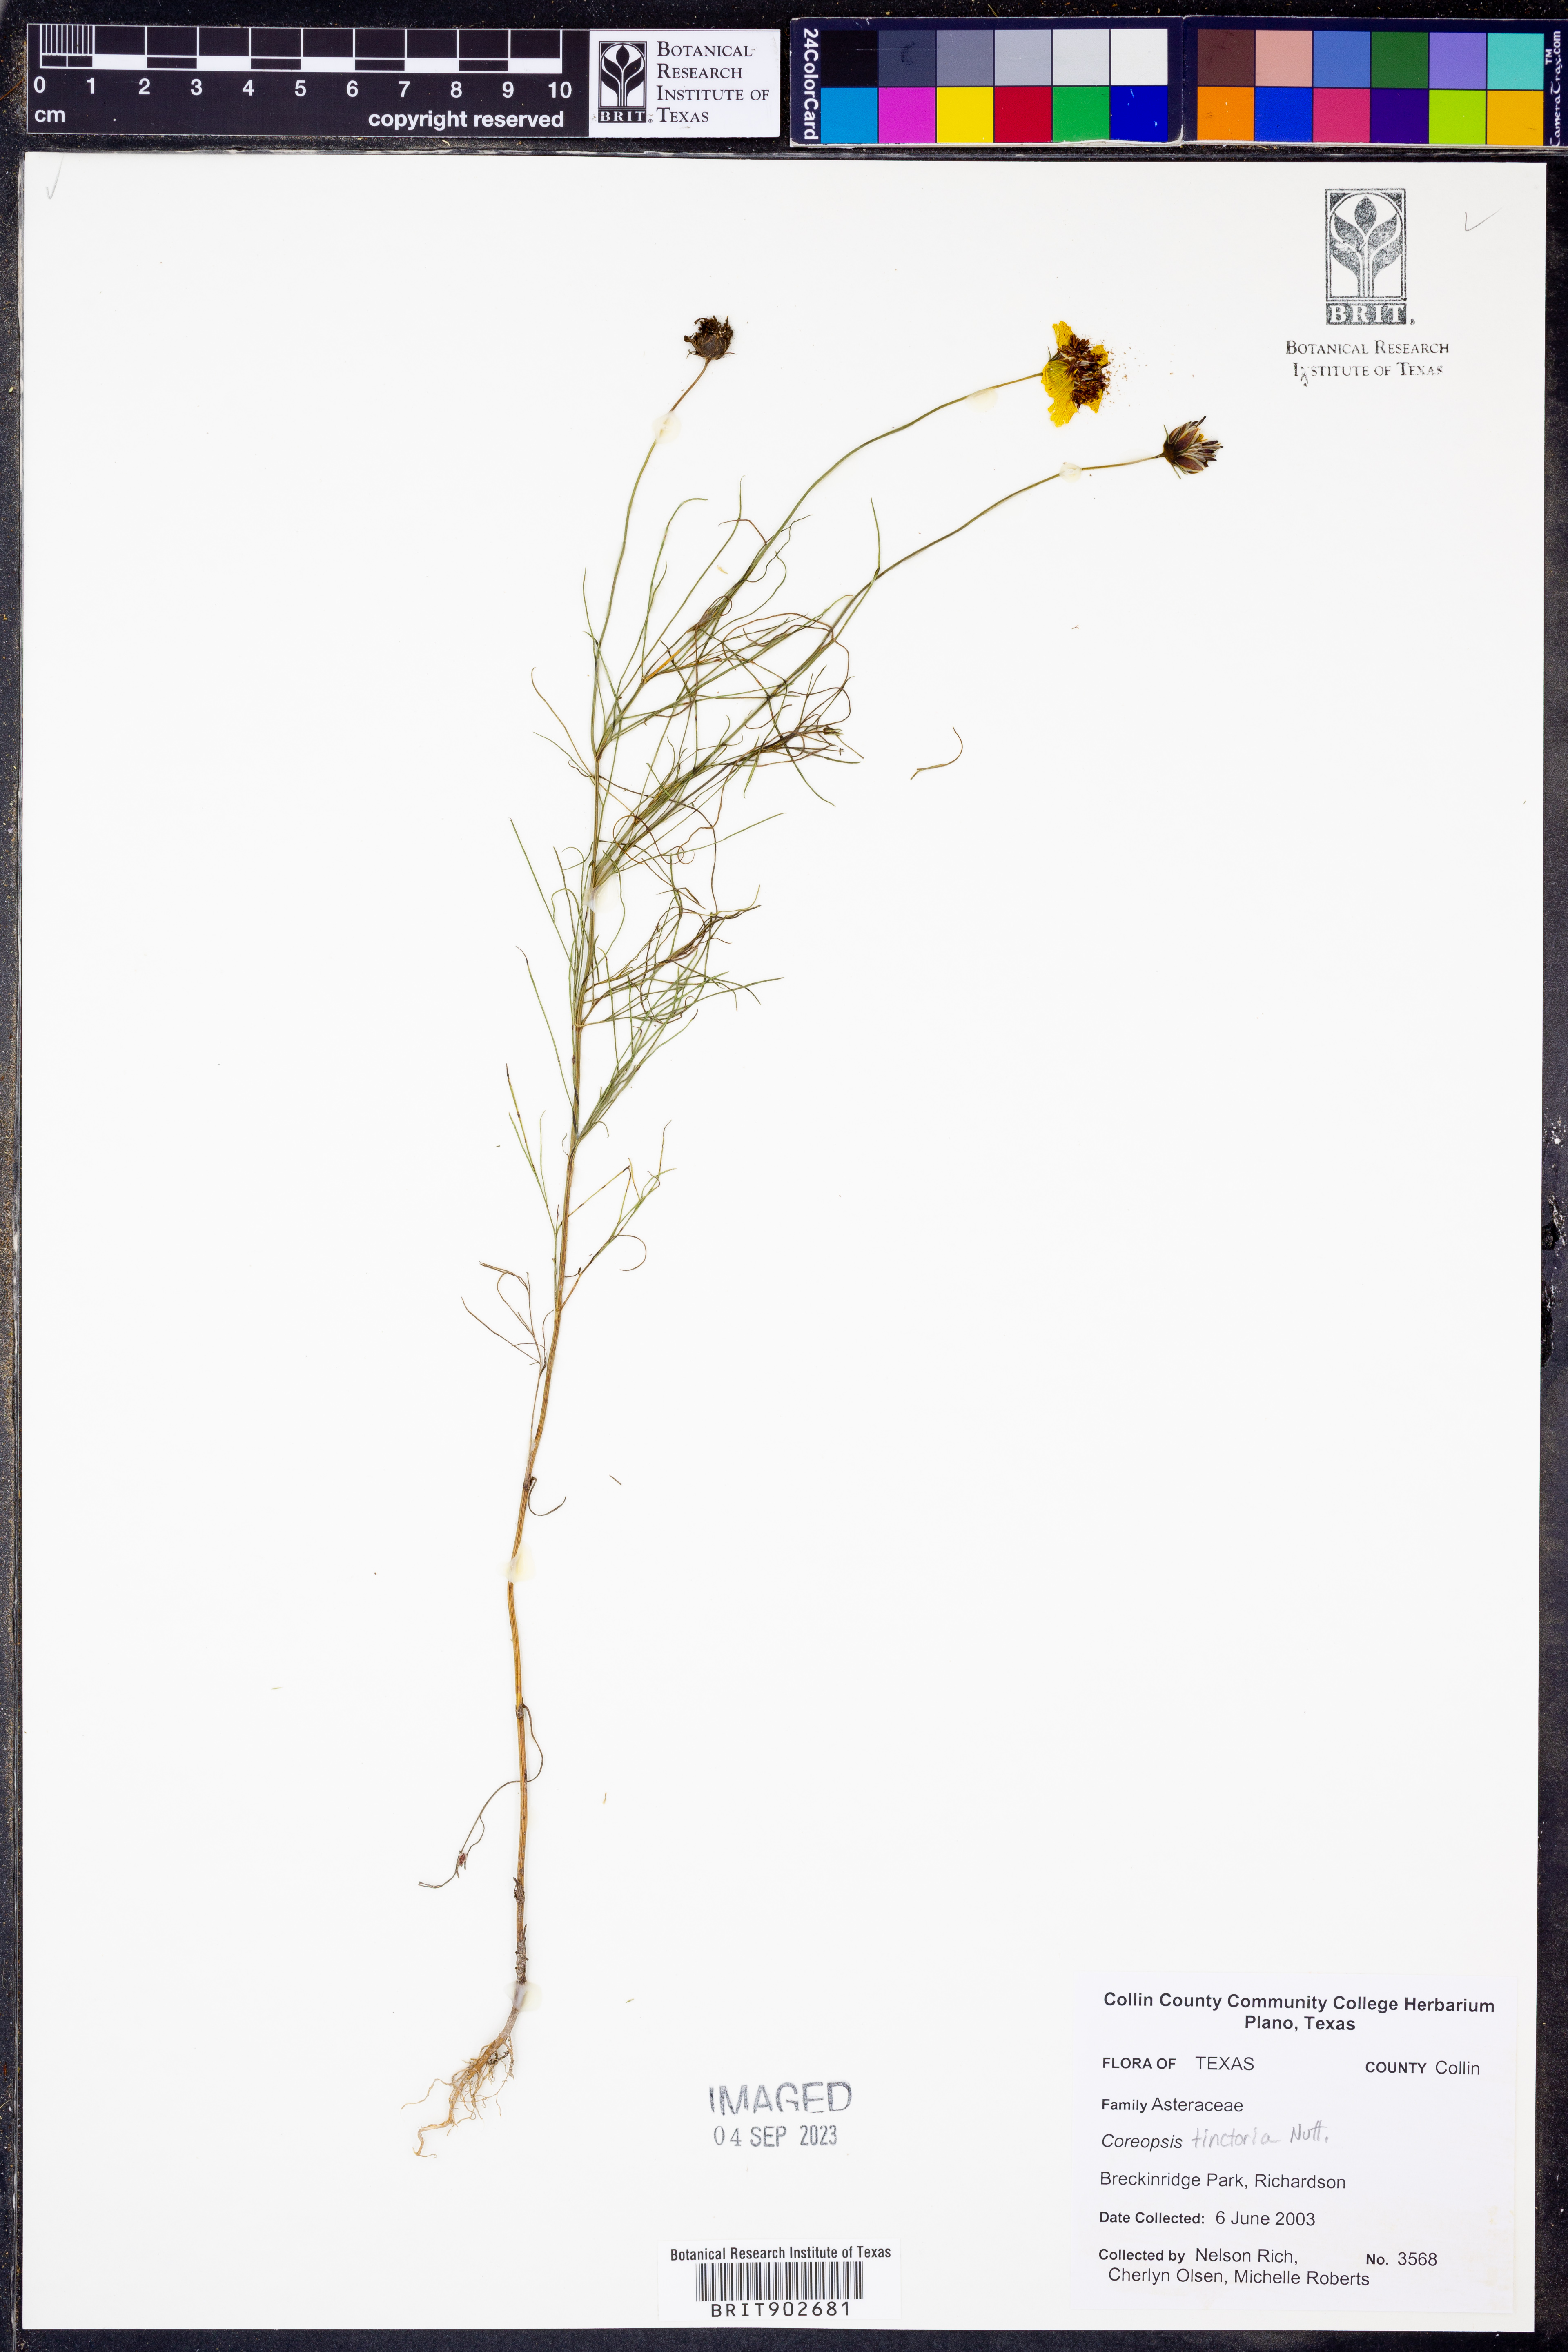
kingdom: Plantae
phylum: Tracheophyta
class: Magnoliopsida
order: Asterales
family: Asteraceae
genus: Coreopsis
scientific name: Coreopsis tinctoria
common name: Garden tickseed
